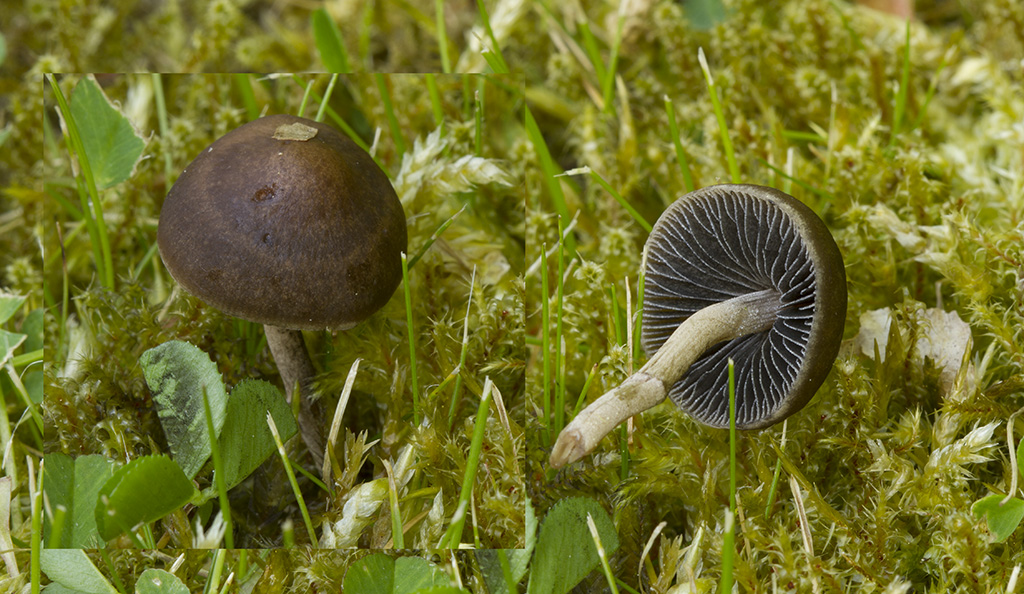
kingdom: Fungi
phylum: Basidiomycota
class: Agaricomycetes
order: Agaricales
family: Bolbitiaceae
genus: Panaeolus
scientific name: Panaeolus fimicola
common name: tidlig glanshat
